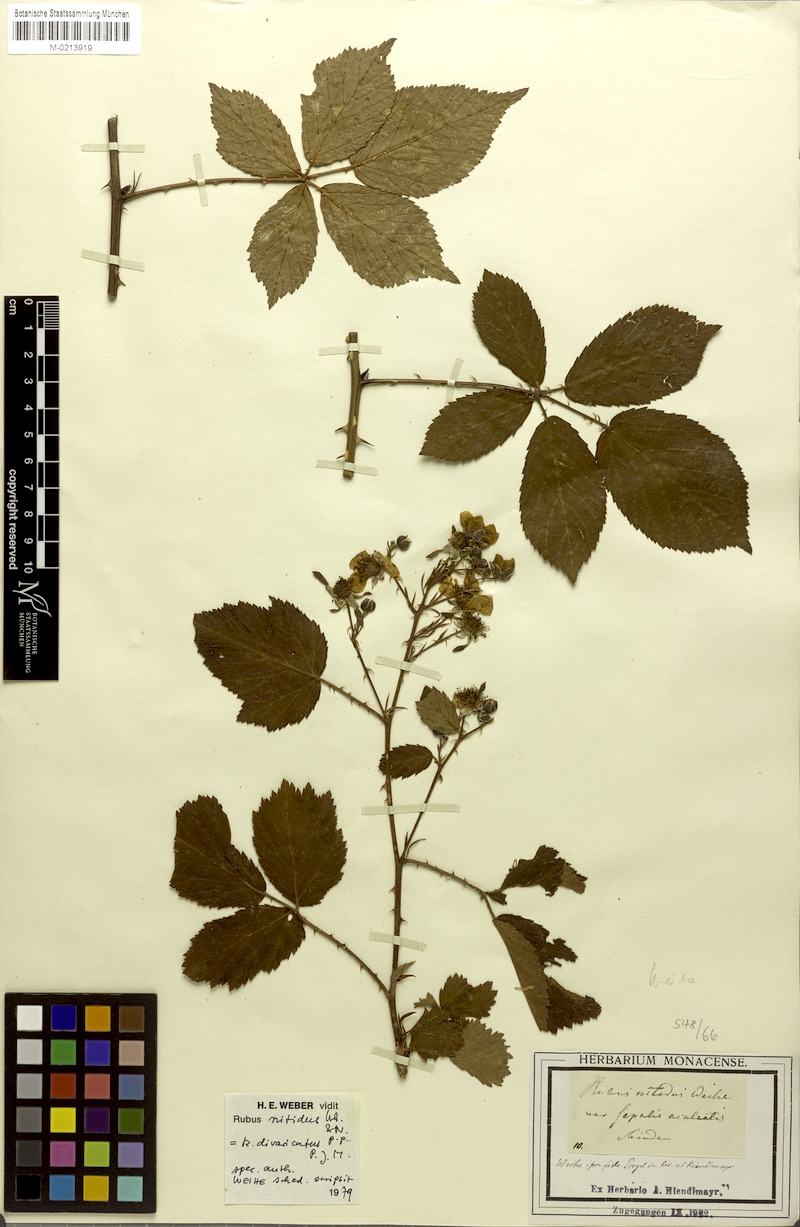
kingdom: Plantae
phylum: Tracheophyta
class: Magnoliopsida
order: Rosales
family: Rosaceae
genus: Rubus
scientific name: Rubus divaricatus
